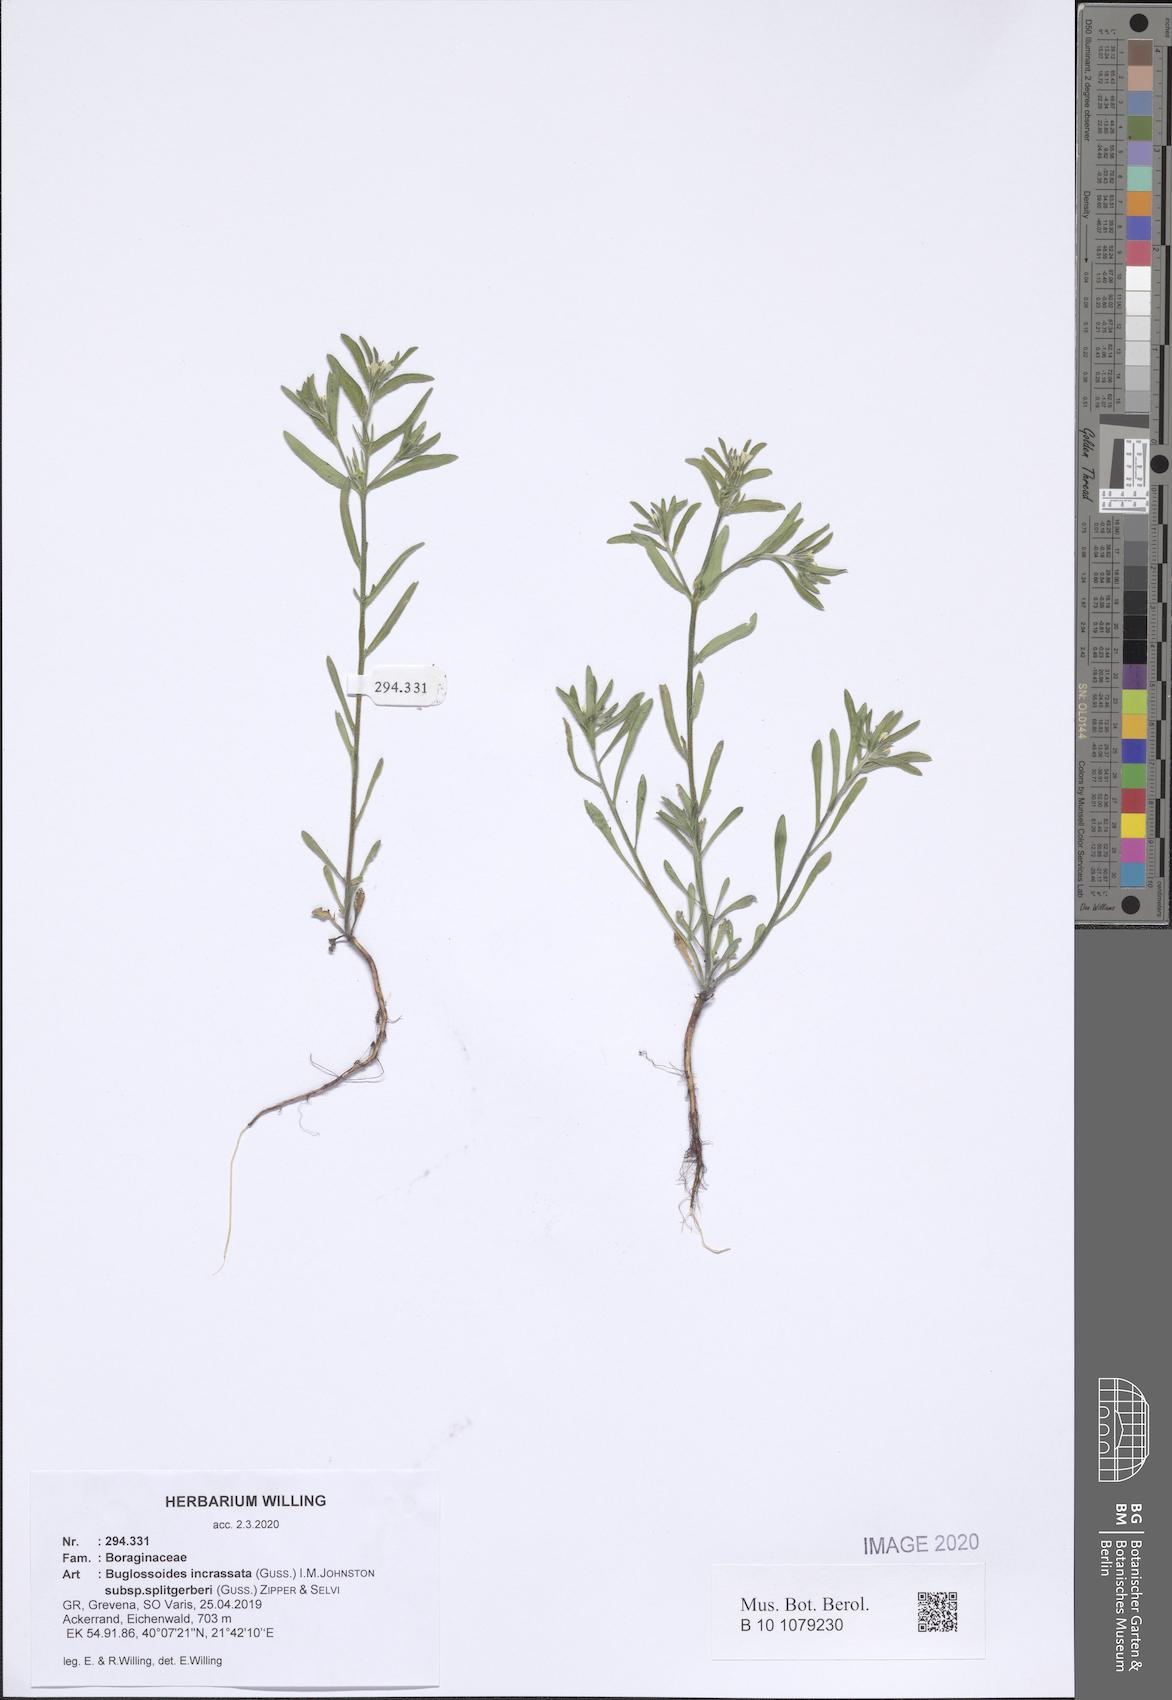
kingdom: Plantae
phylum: Tracheophyta
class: Magnoliopsida
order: Boraginales
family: Boraginaceae
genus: Buglossoides
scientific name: Buglossoides incrassata
